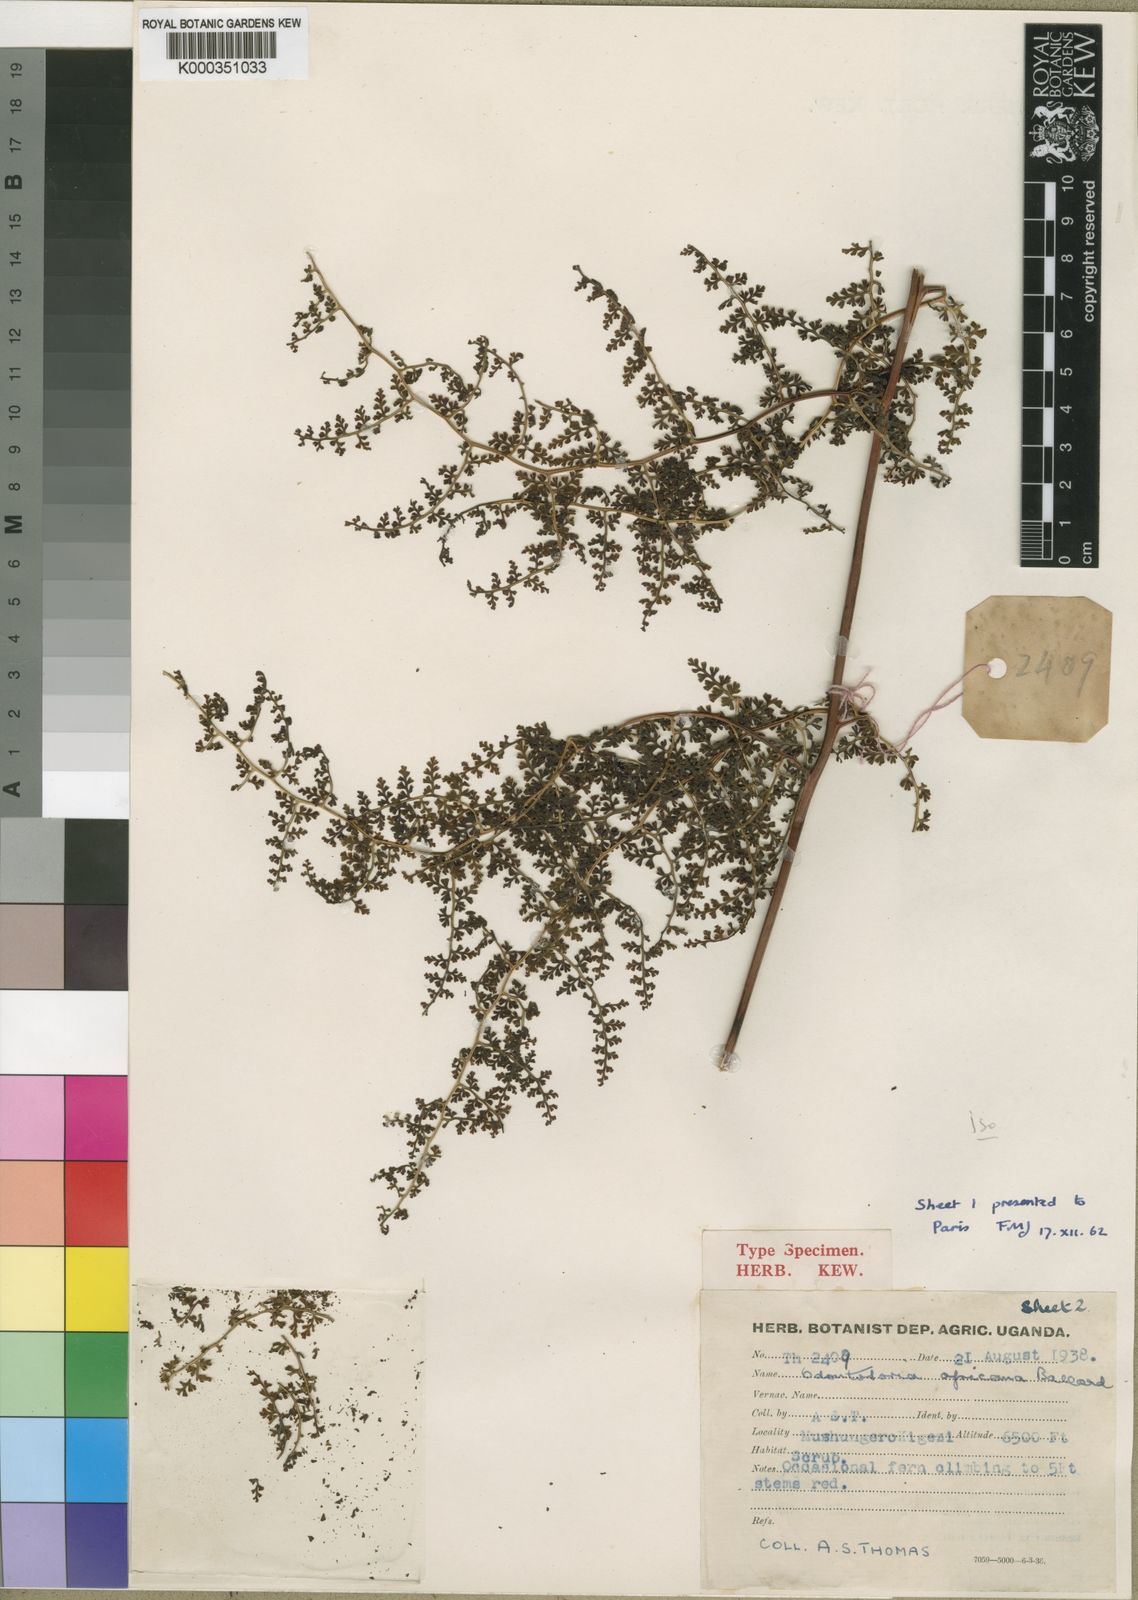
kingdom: Plantae
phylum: Tracheophyta
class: Polypodiopsida
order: Polypodiales
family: Lindsaeaceae
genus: Odontosoria
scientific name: Odontosoria africana
